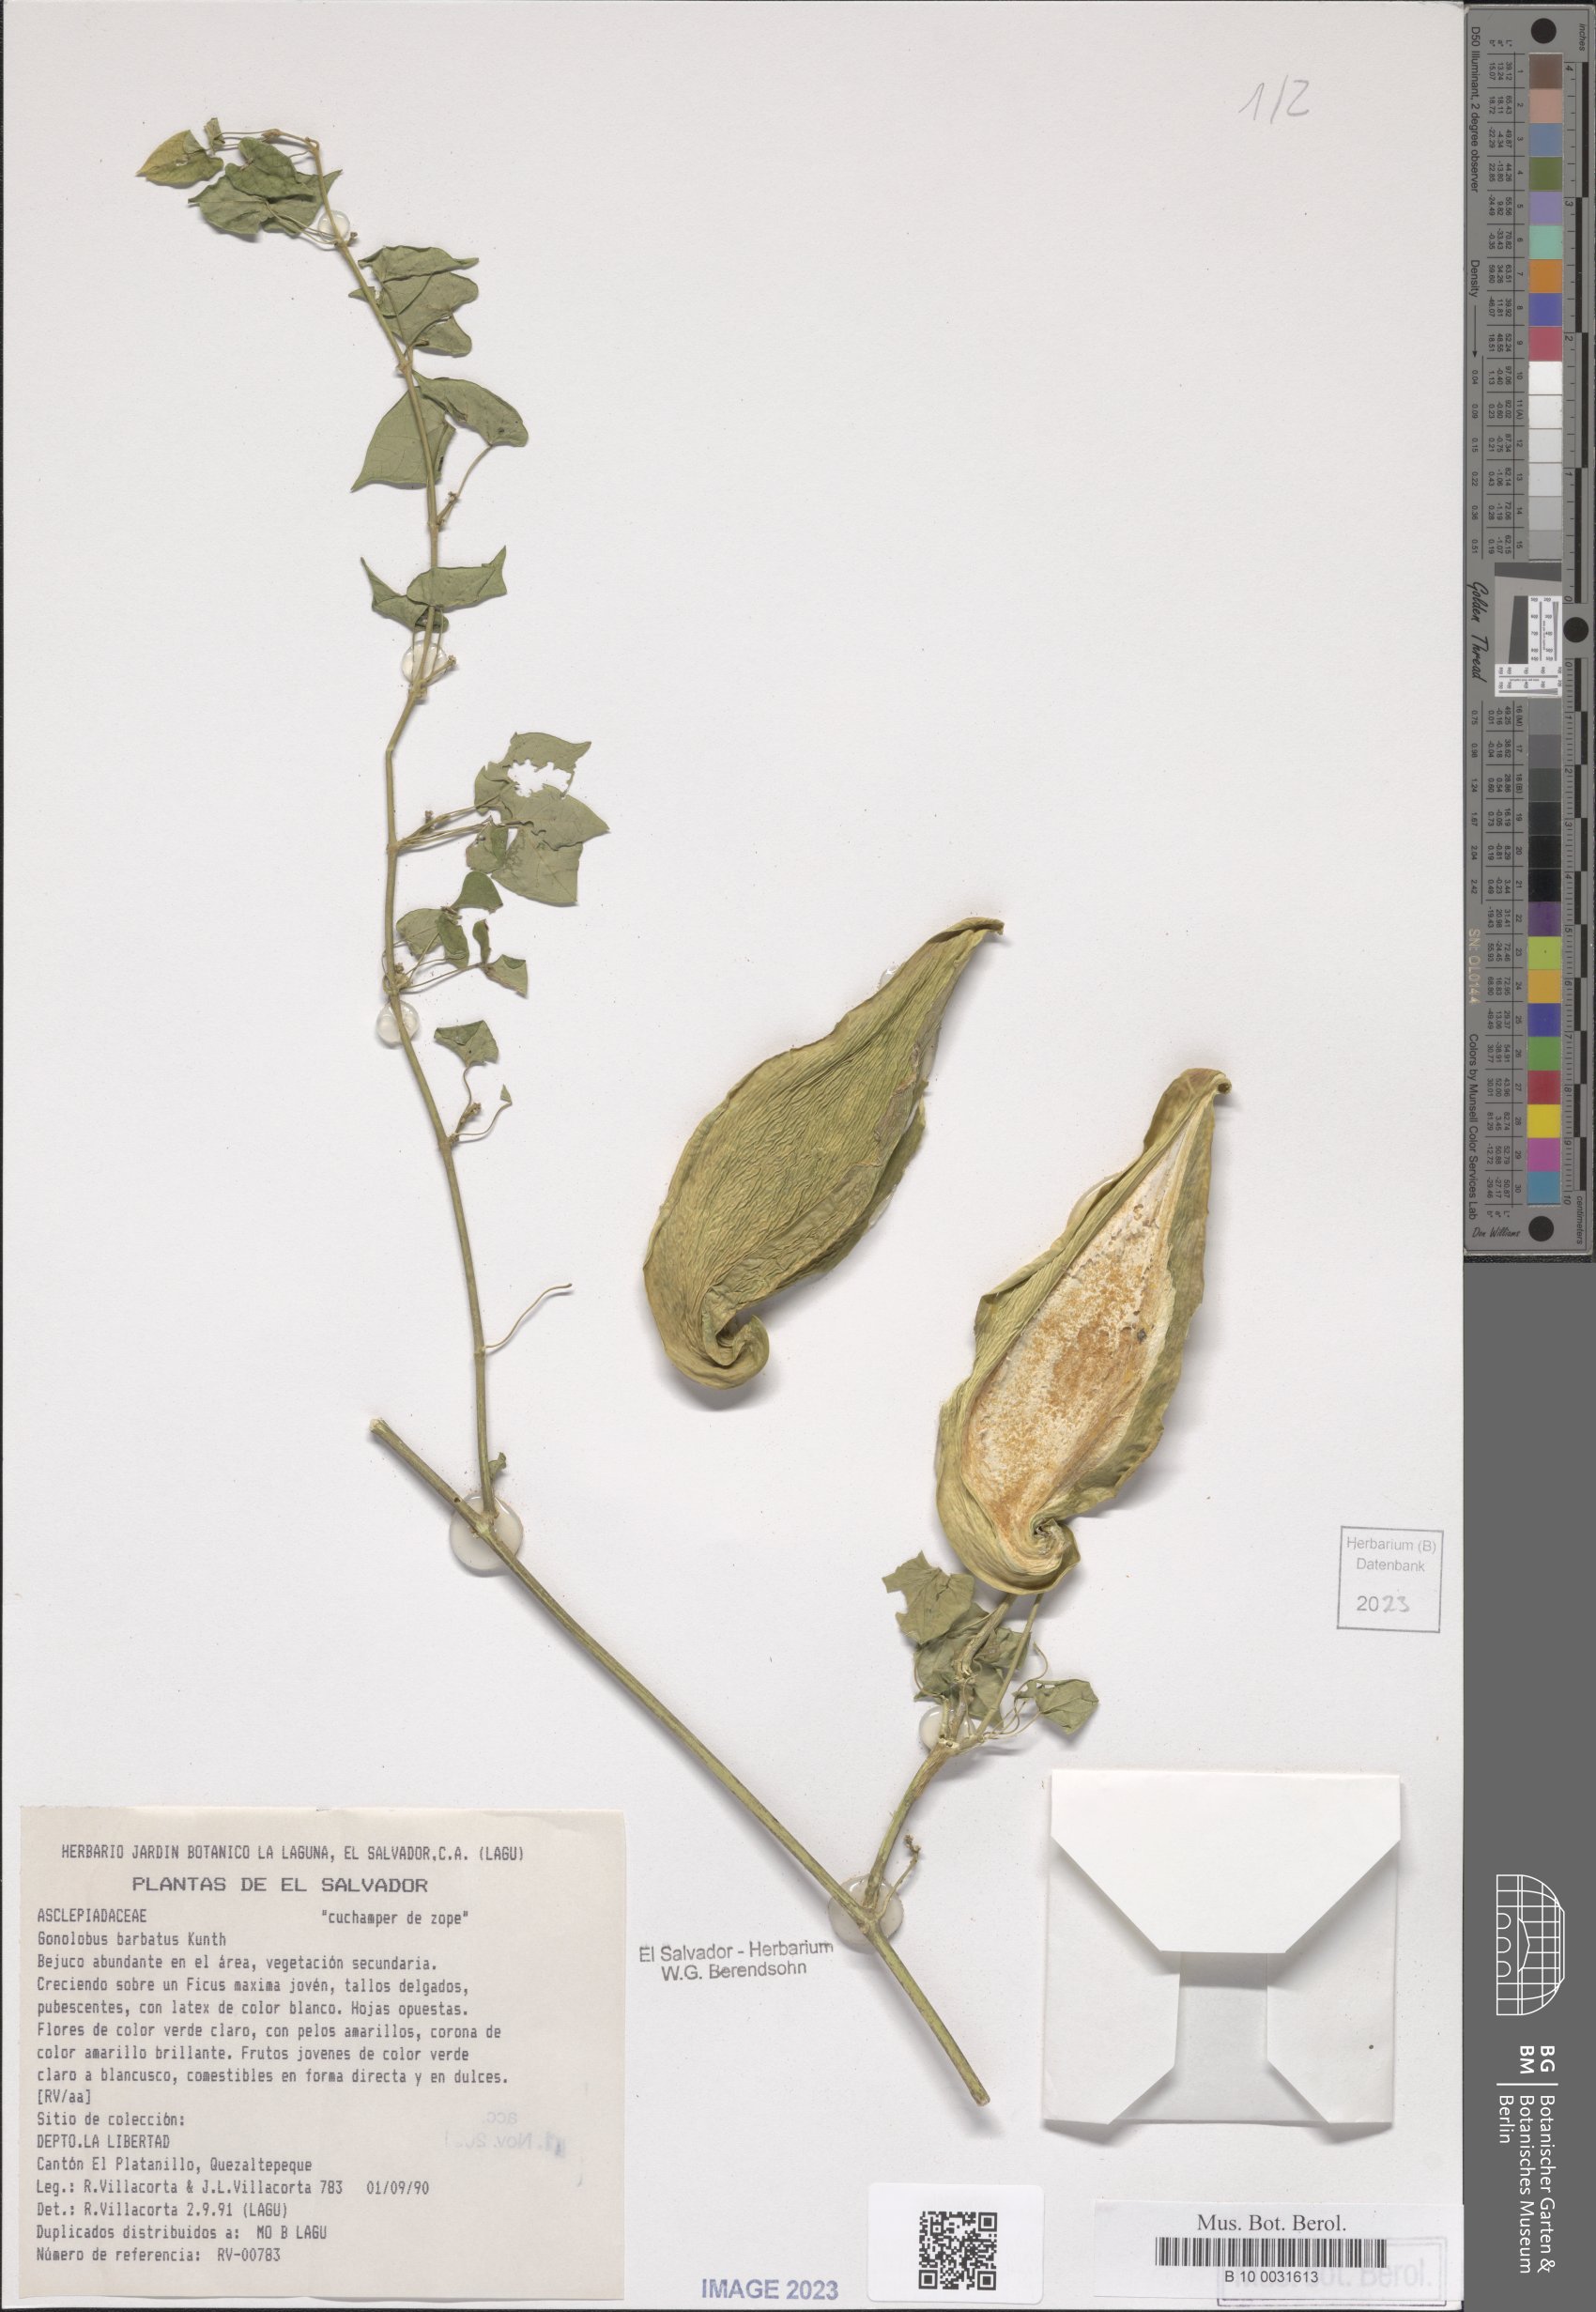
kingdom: Plantae
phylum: Tracheophyta
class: Magnoliopsida
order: Gentianales
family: Apocynaceae
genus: Gonolobus
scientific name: Gonolobus barbatus
